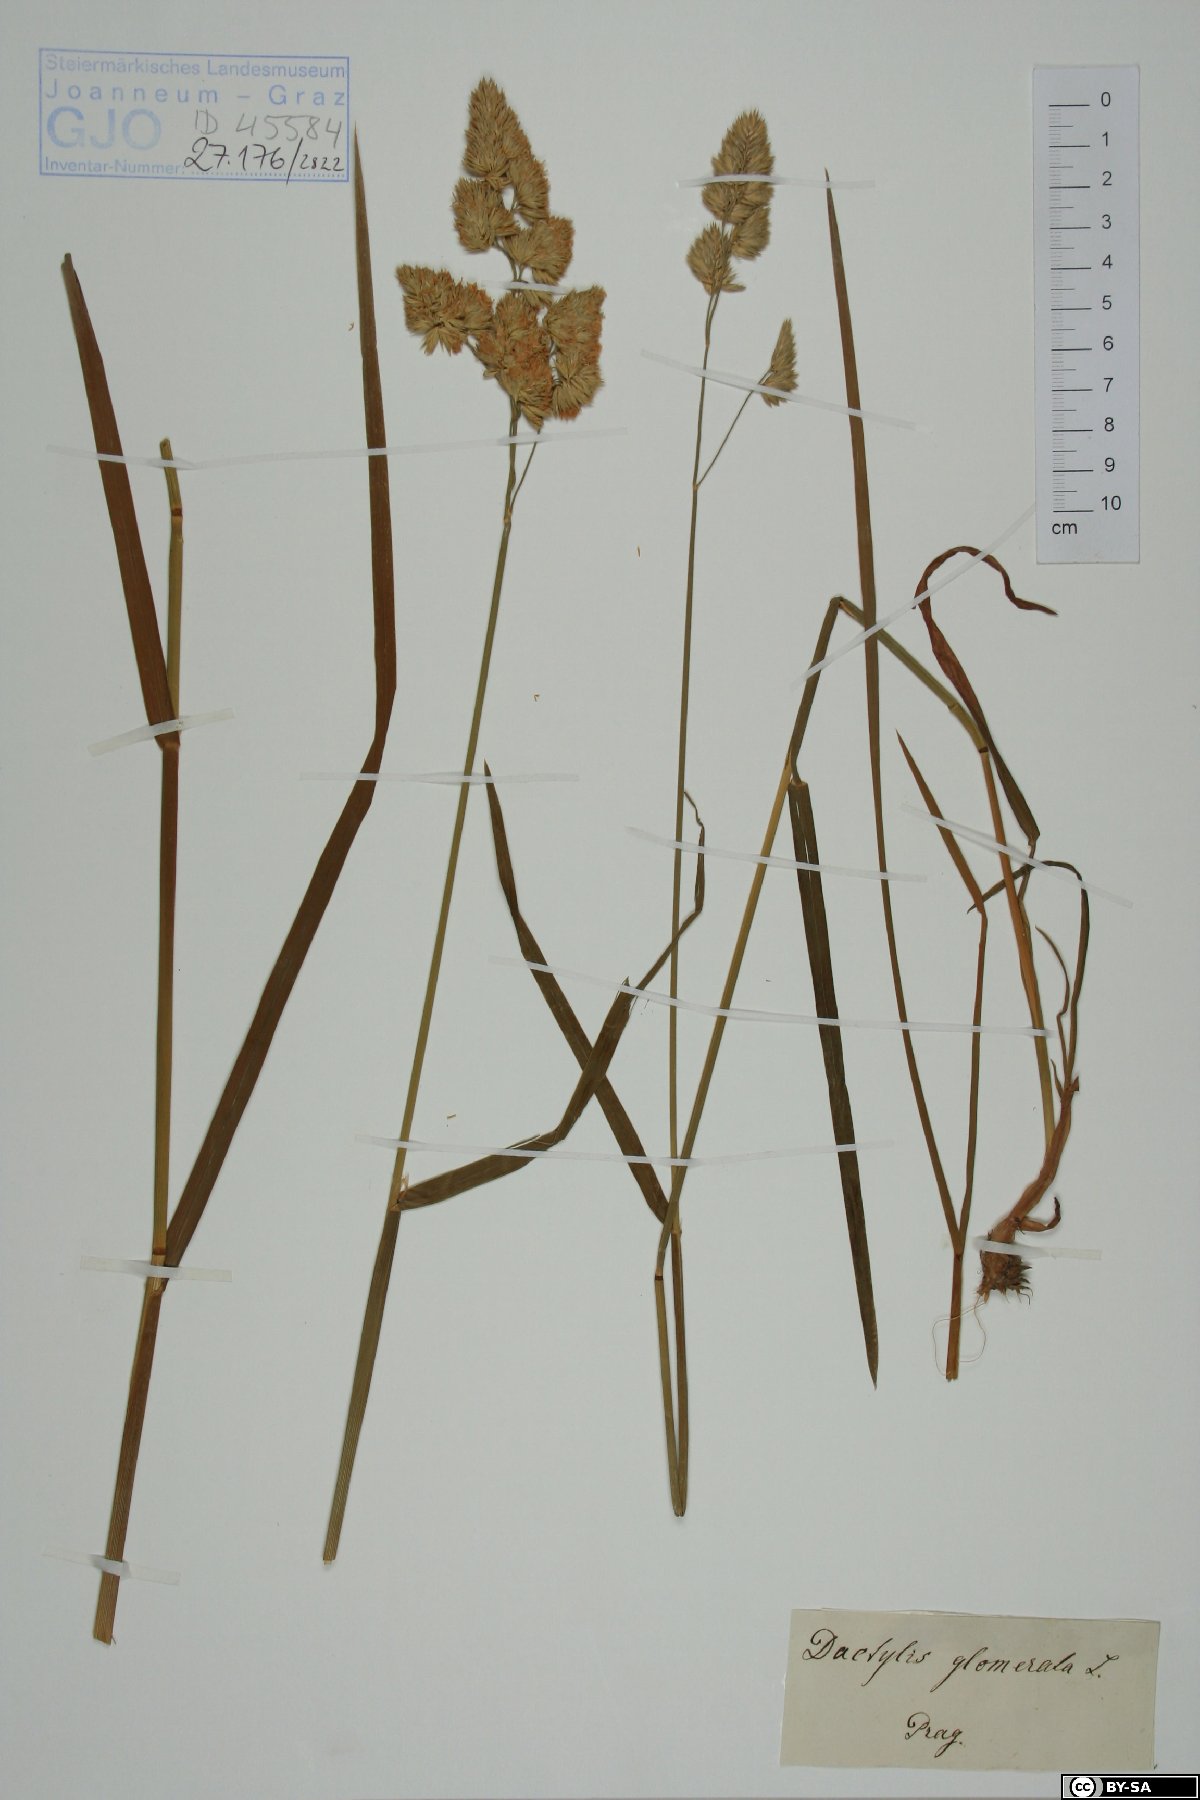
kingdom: Plantae
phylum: Tracheophyta
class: Liliopsida
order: Poales
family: Poaceae
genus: Dactylis
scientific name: Dactylis glomerata
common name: Orchardgrass
